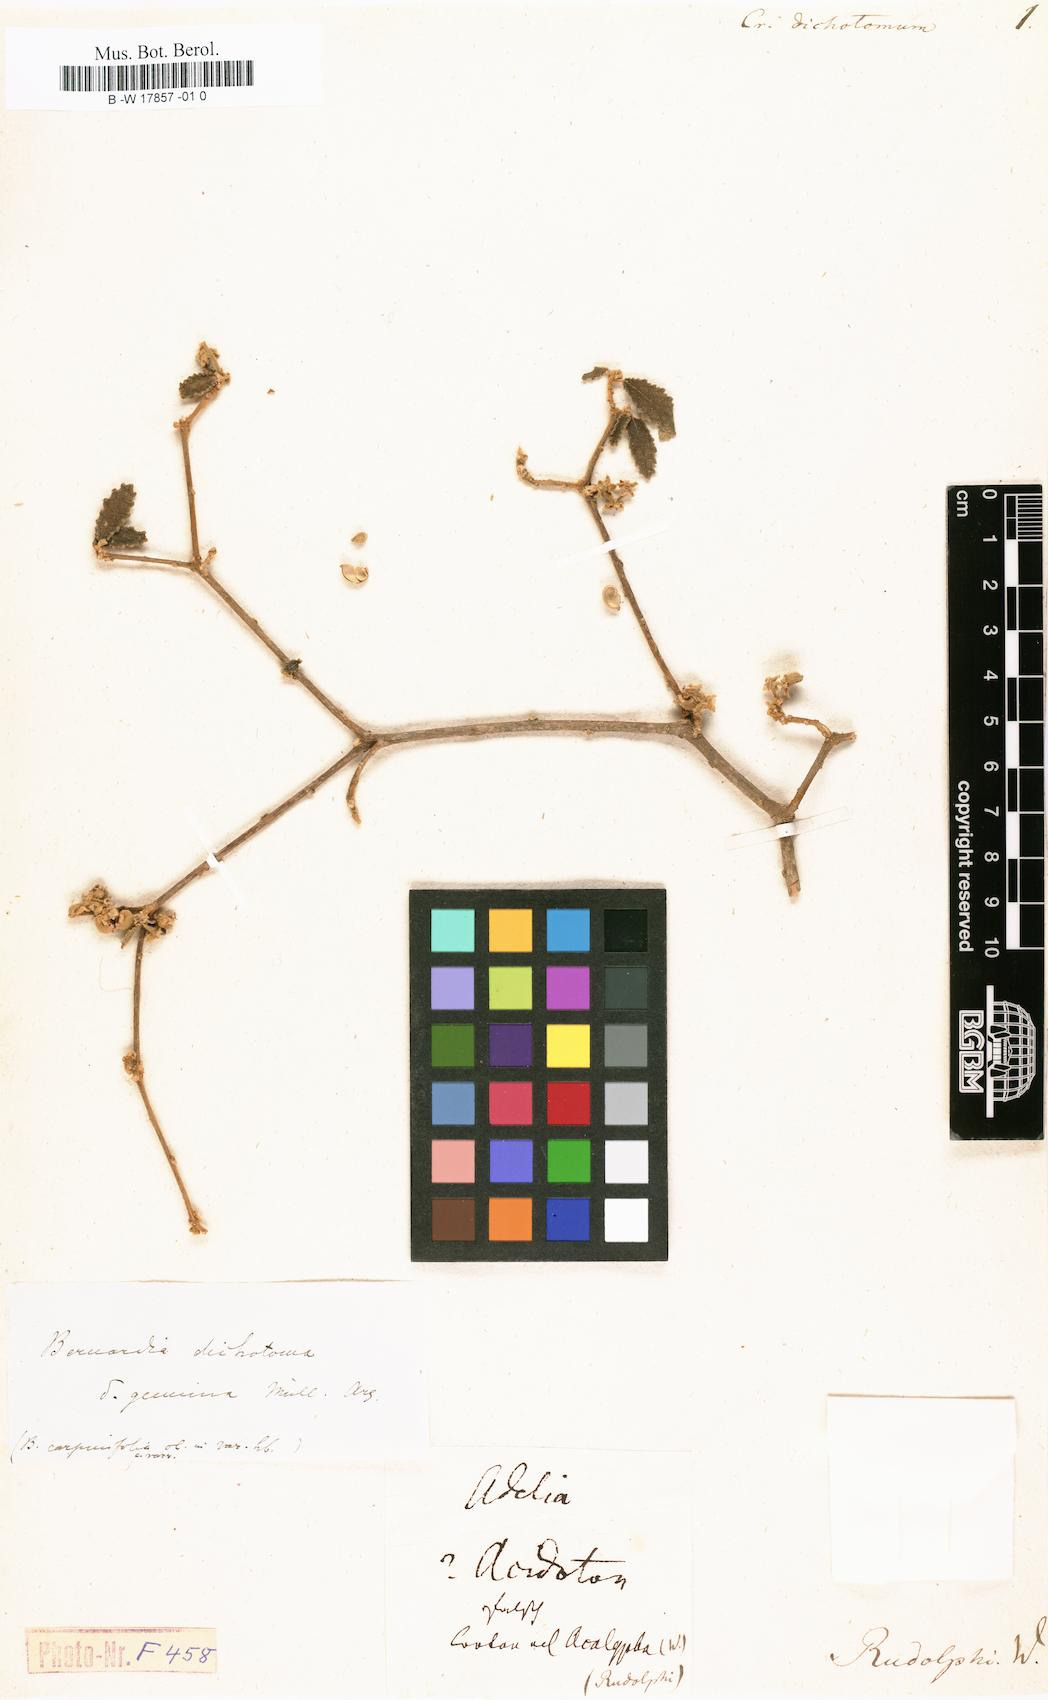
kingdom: Plantae
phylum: Tracheophyta
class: Magnoliopsida
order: Malpighiales
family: Euphorbiaceae
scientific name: Euphorbiaceae
